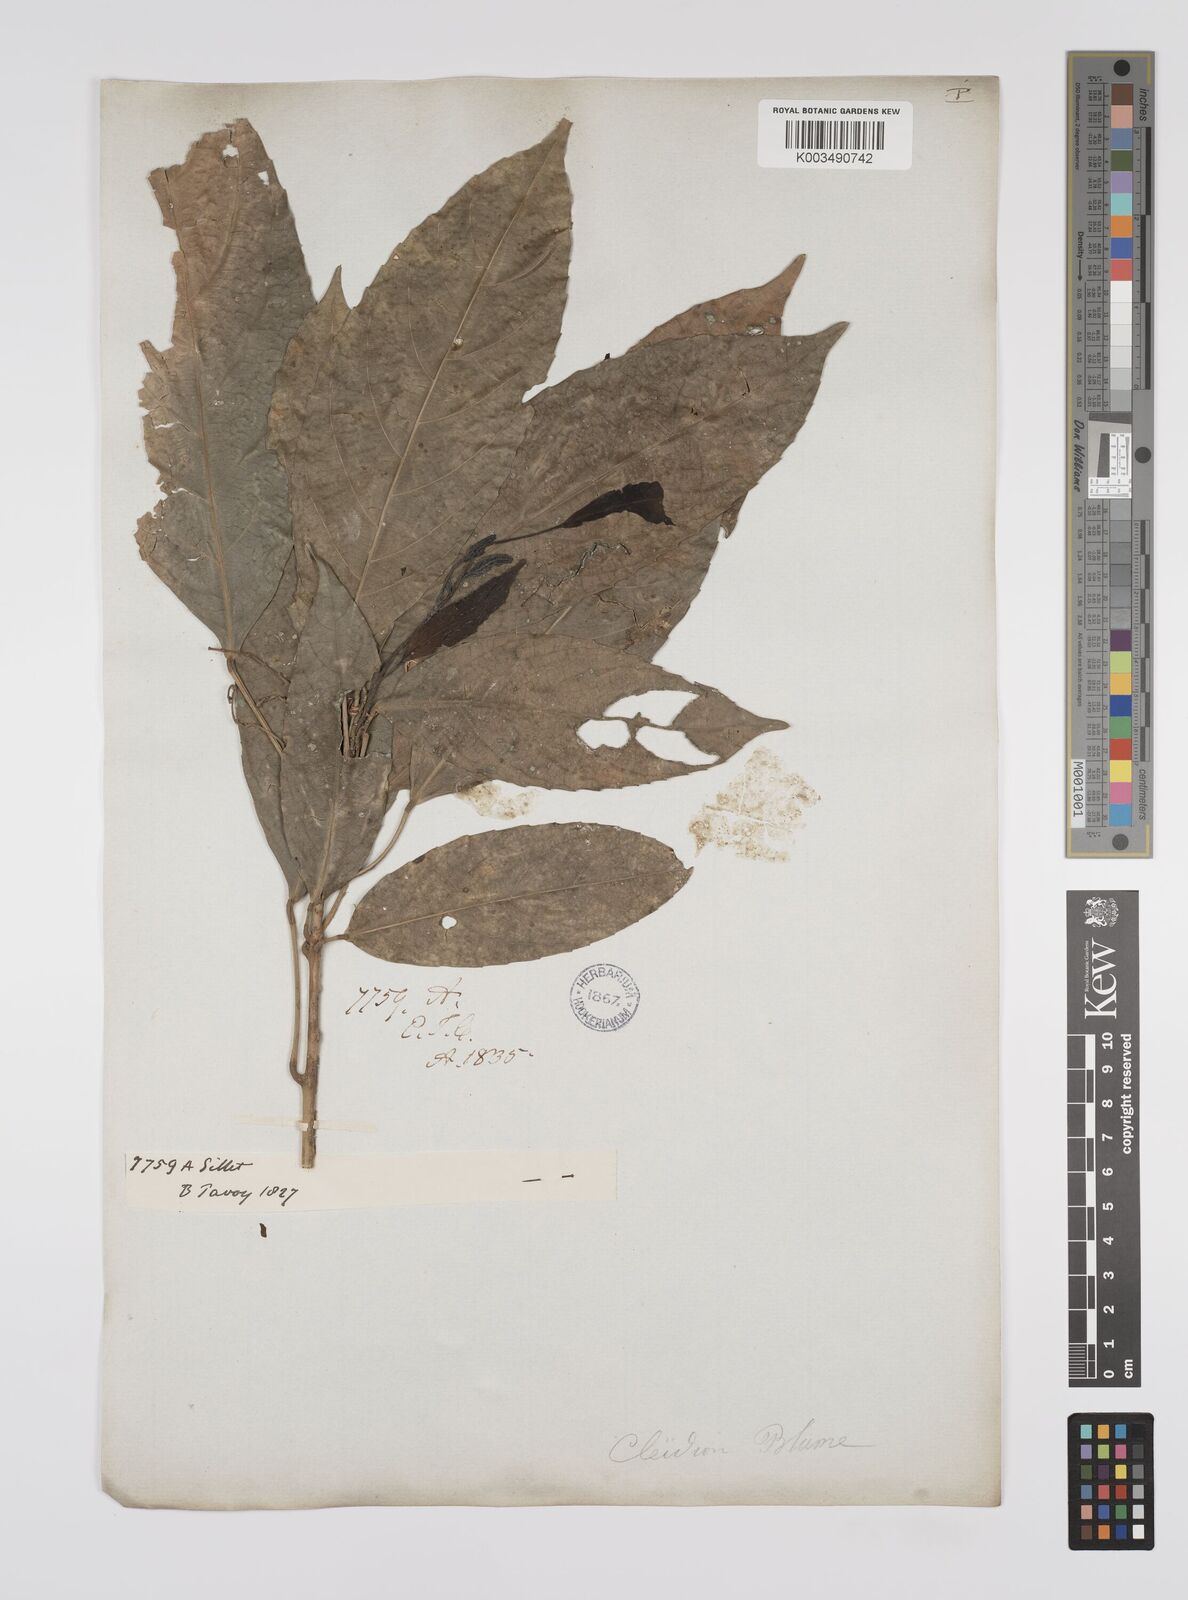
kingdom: Plantae
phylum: Tracheophyta
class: Magnoliopsida
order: Malpighiales
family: Euphorbiaceae
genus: Acalypha
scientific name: Acalypha spiciflora
